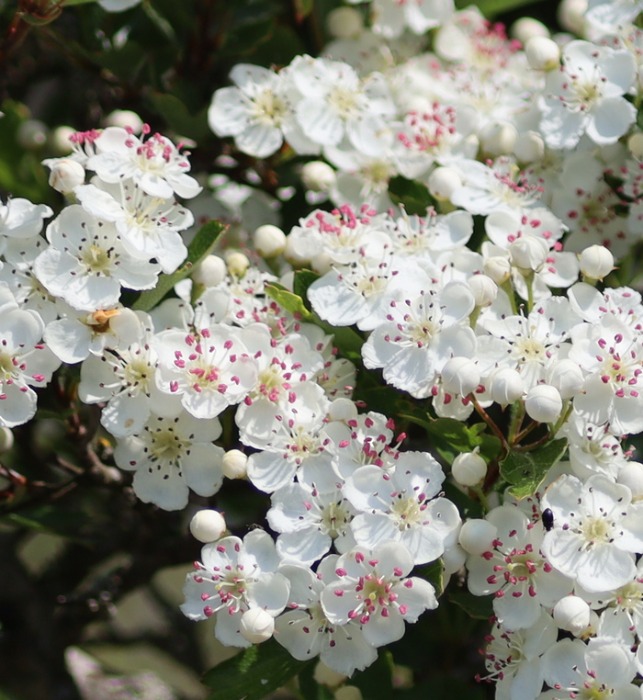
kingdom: Plantae
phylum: Tracheophyta
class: Magnoliopsida
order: Rosales
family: Rosaceae
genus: Crataegus
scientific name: Crataegus monogyna
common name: Engriflet hvidtjørn
